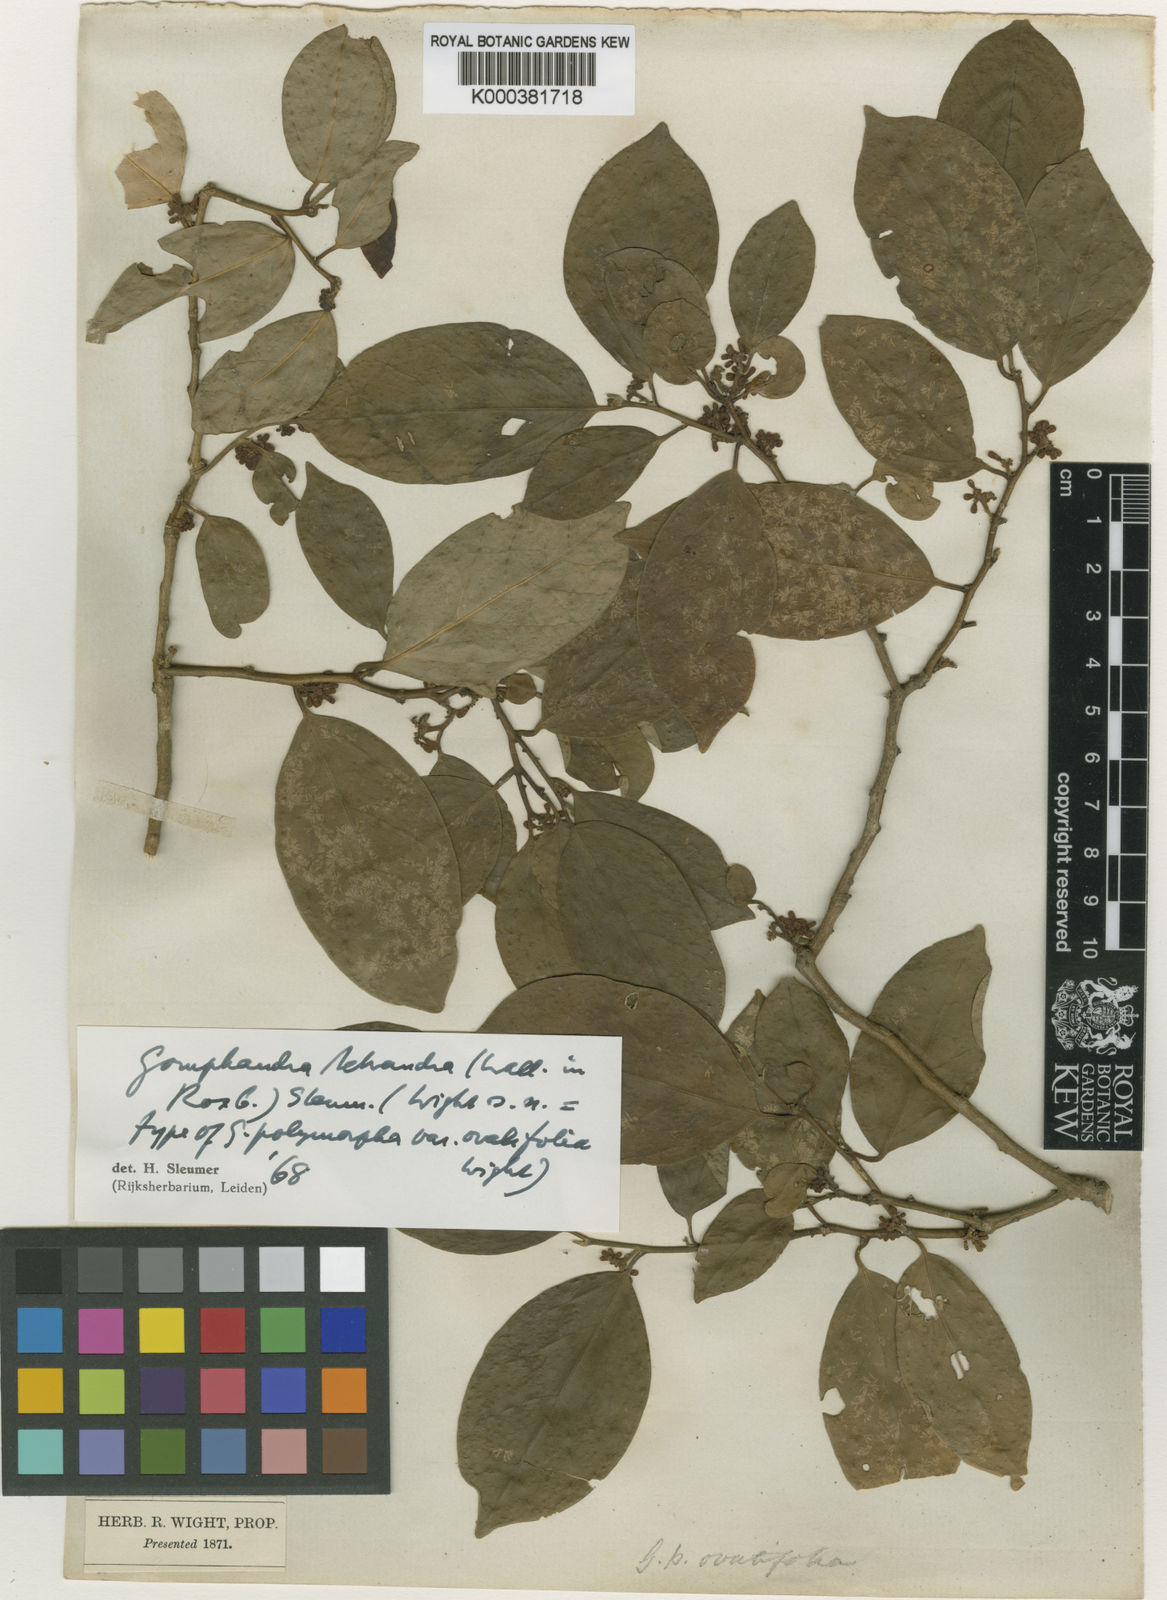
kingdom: Plantae
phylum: Tracheophyta
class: Magnoliopsida
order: Cardiopteridales
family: Stemonuraceae
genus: Gomphandra
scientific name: Gomphandra tetrandra
